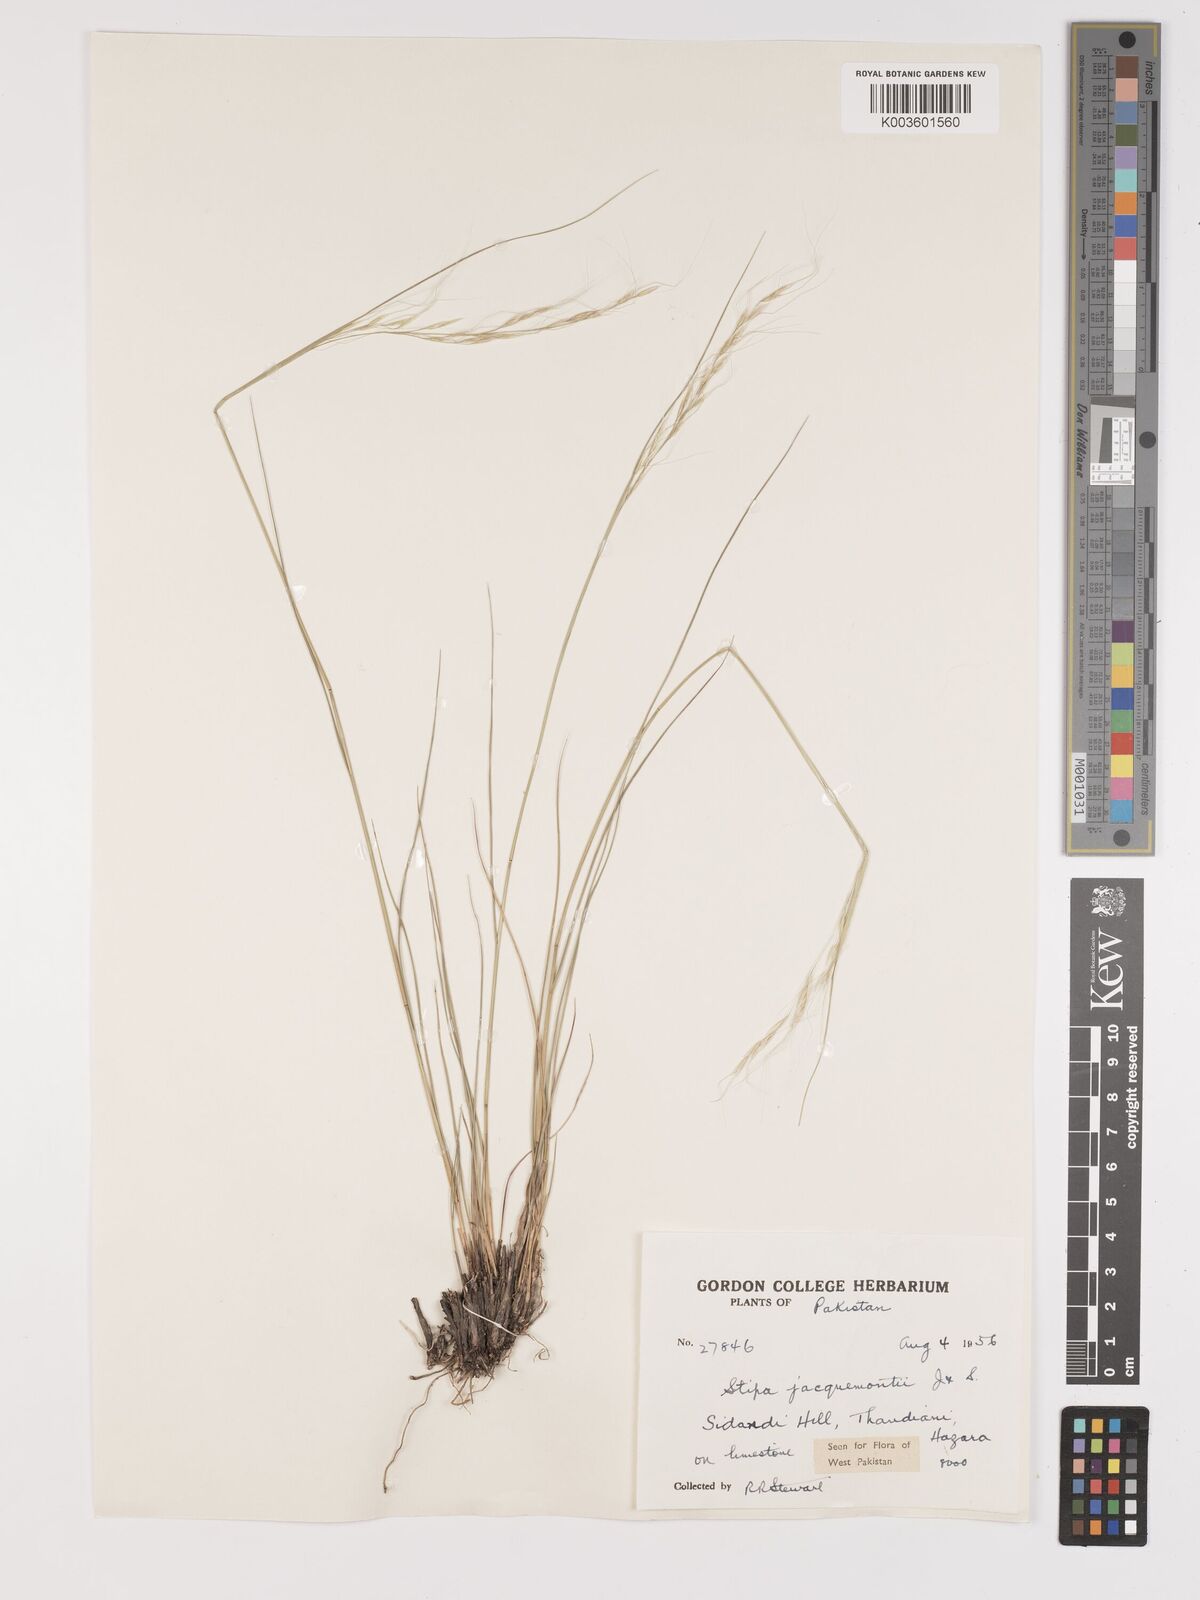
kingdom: Plantae
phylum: Tracheophyta
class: Liliopsida
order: Poales
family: Poaceae
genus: Achnatherum
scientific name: Achnatherum jacquemontii
